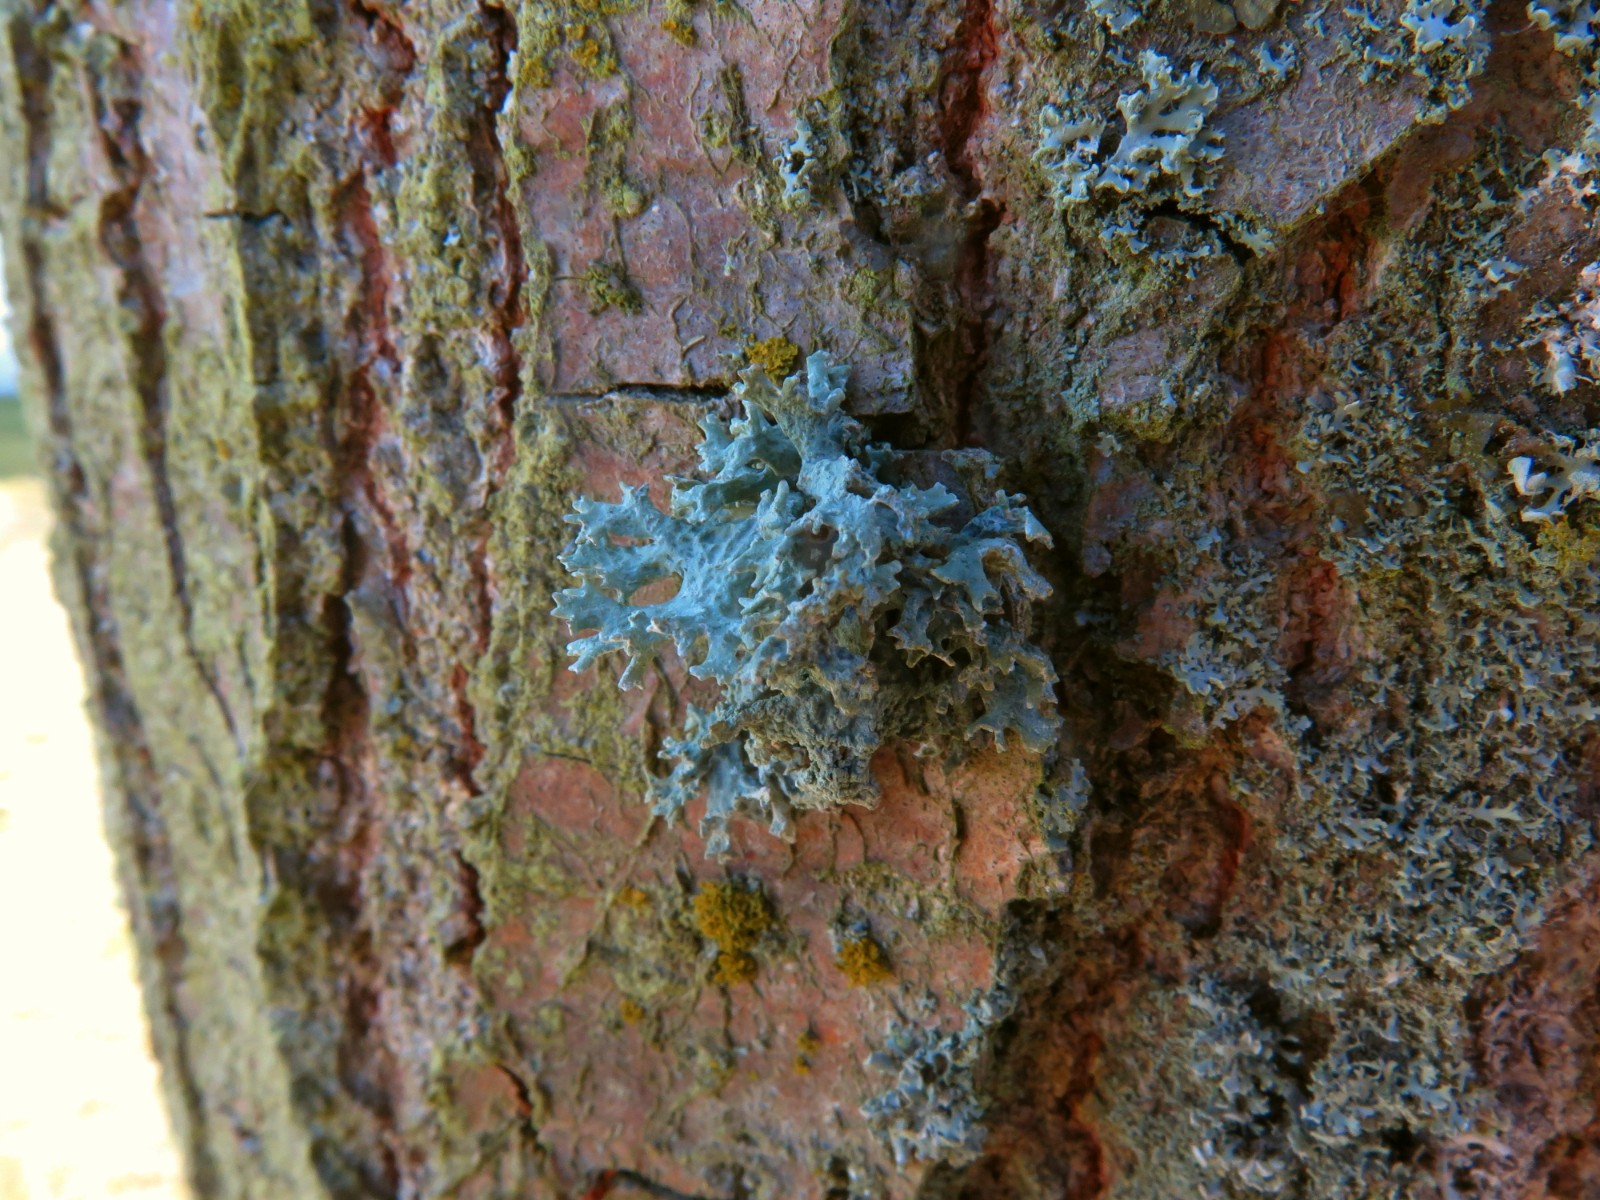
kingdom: Fungi
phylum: Ascomycota
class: Lecanoromycetes
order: Lecanorales
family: Parmeliaceae
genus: Evernia
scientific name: Evernia prunastri
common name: almindelig slåenlav
